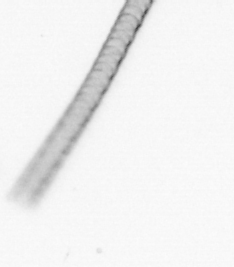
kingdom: Chromista
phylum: Ochrophyta
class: Bacillariophyceae
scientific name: Bacillariophyceae
